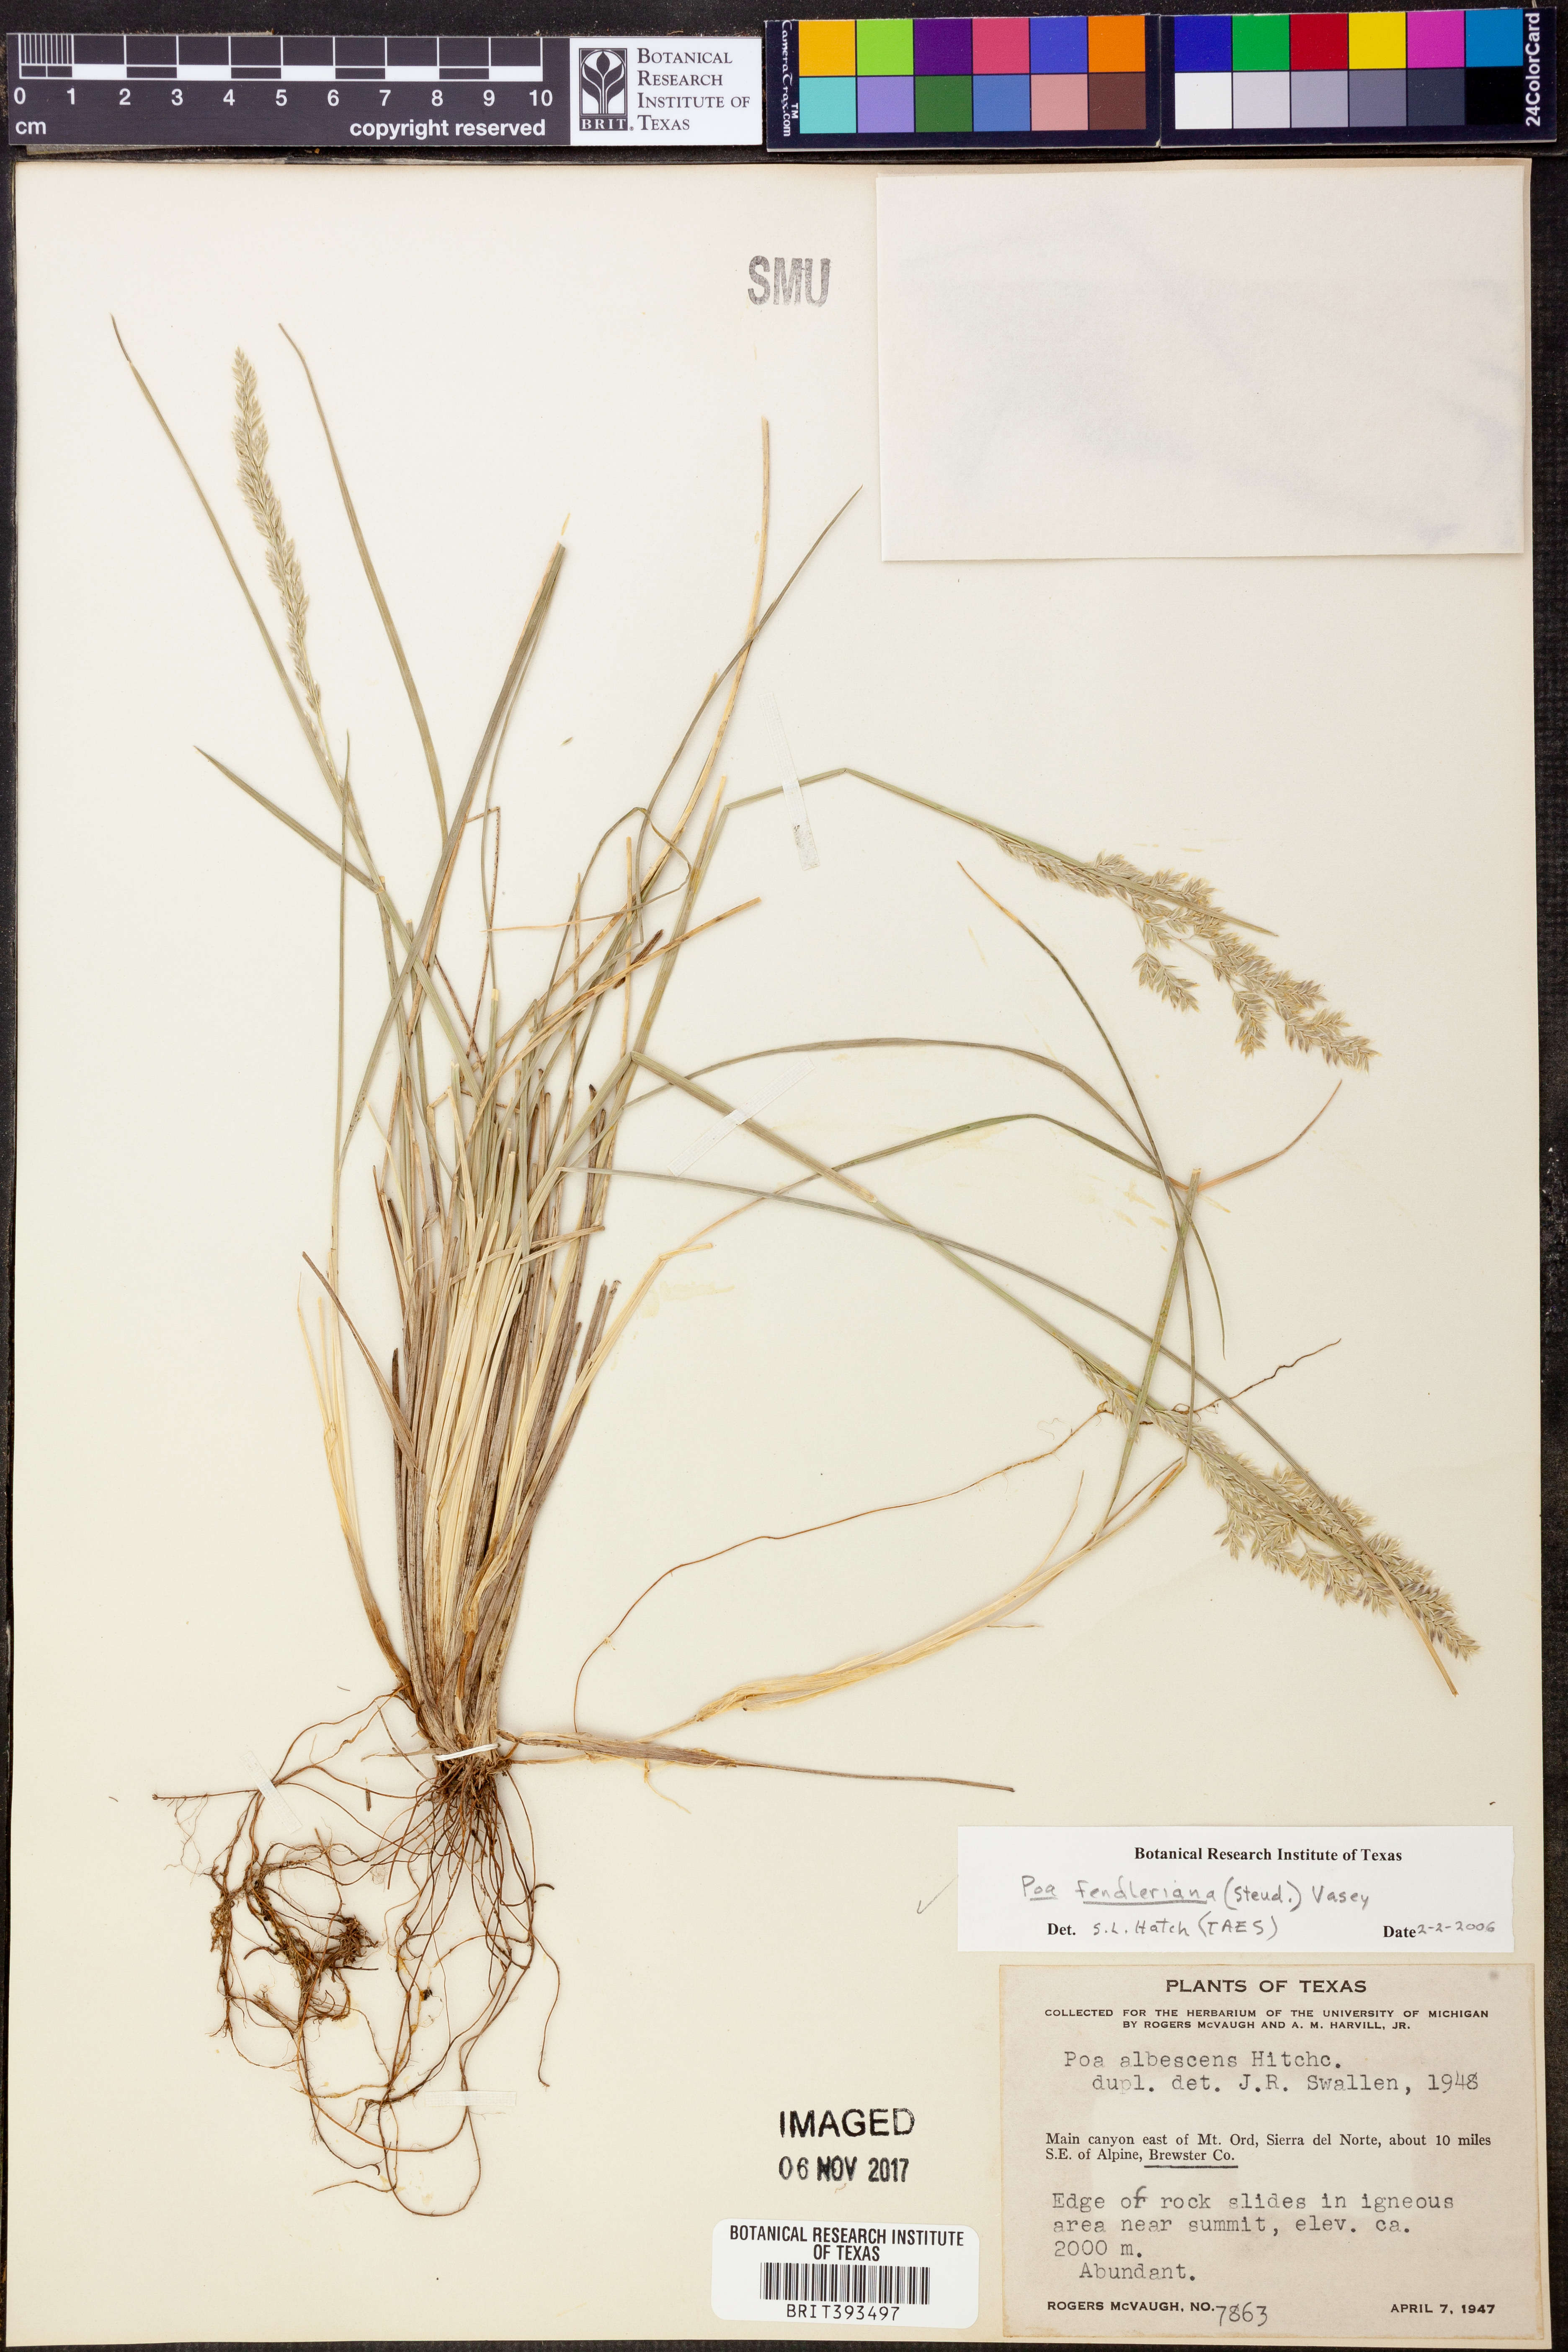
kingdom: Plantae
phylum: Tracheophyta
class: Liliopsida
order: Poales
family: Poaceae
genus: Poa
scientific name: Poa fendleriana
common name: Mutton bluegrass
